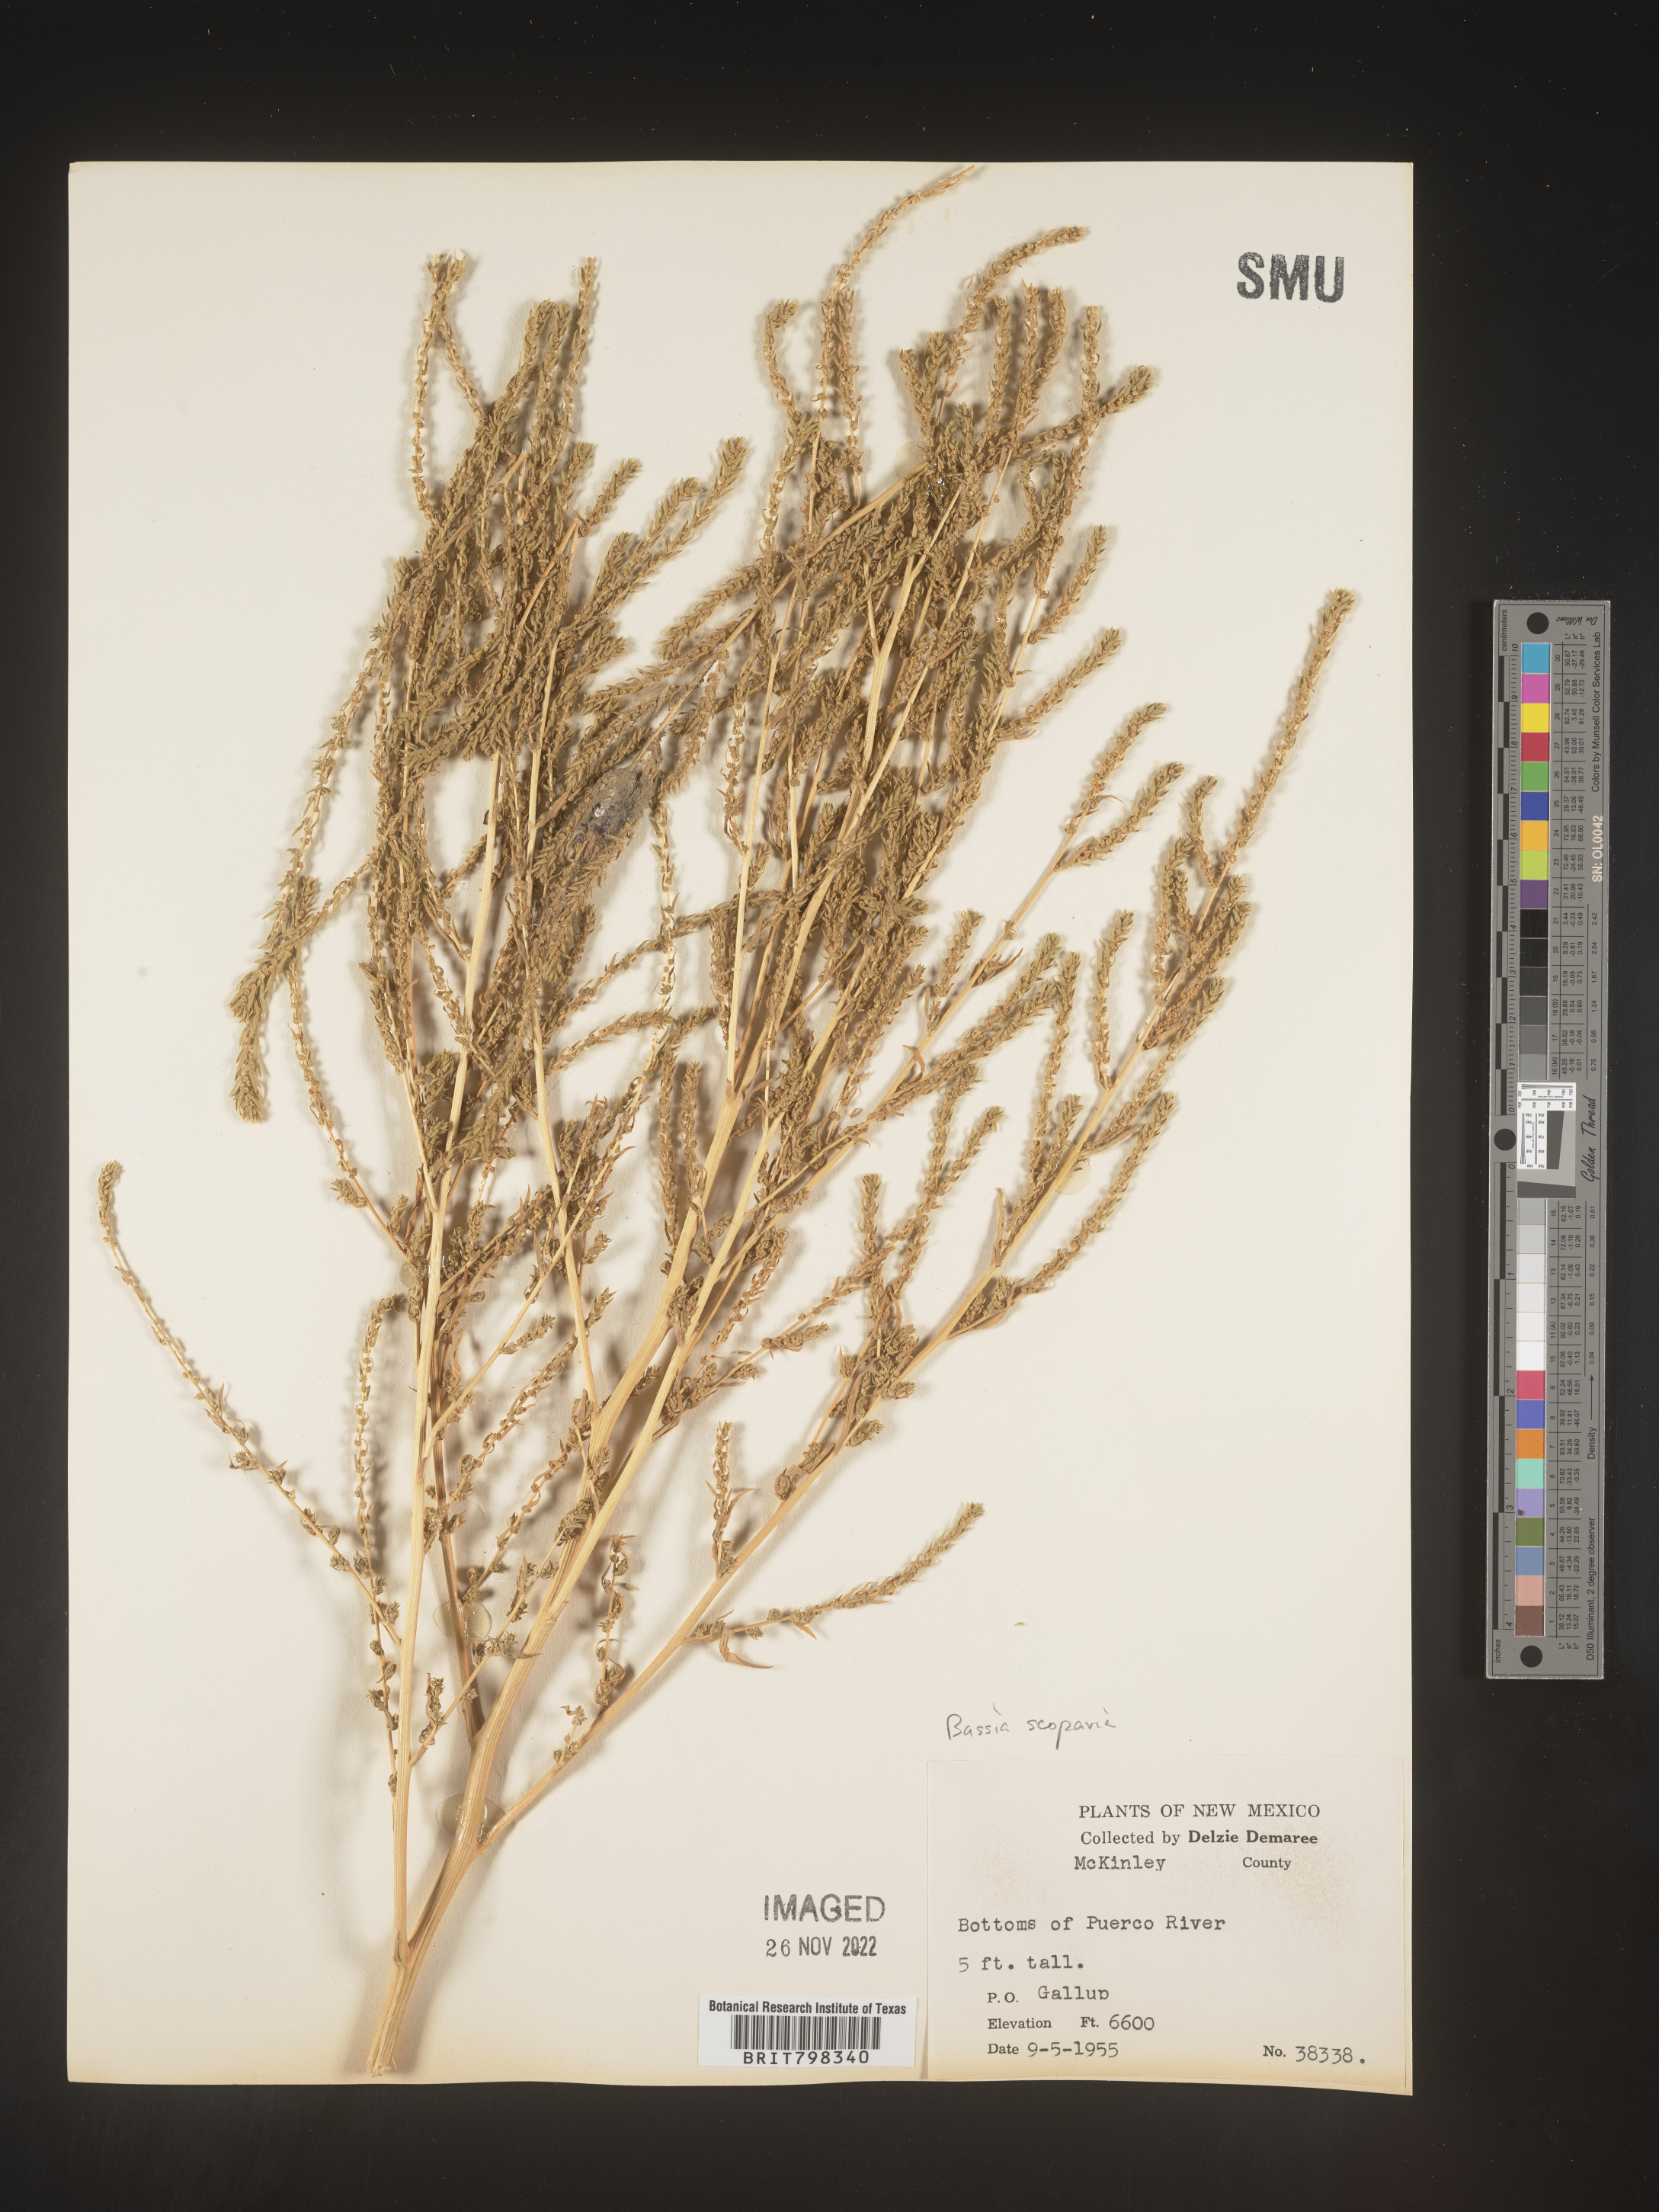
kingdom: Plantae
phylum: Tracheophyta
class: Magnoliopsida
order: Caryophyllales
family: Amaranthaceae
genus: Bassia
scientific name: Bassia
